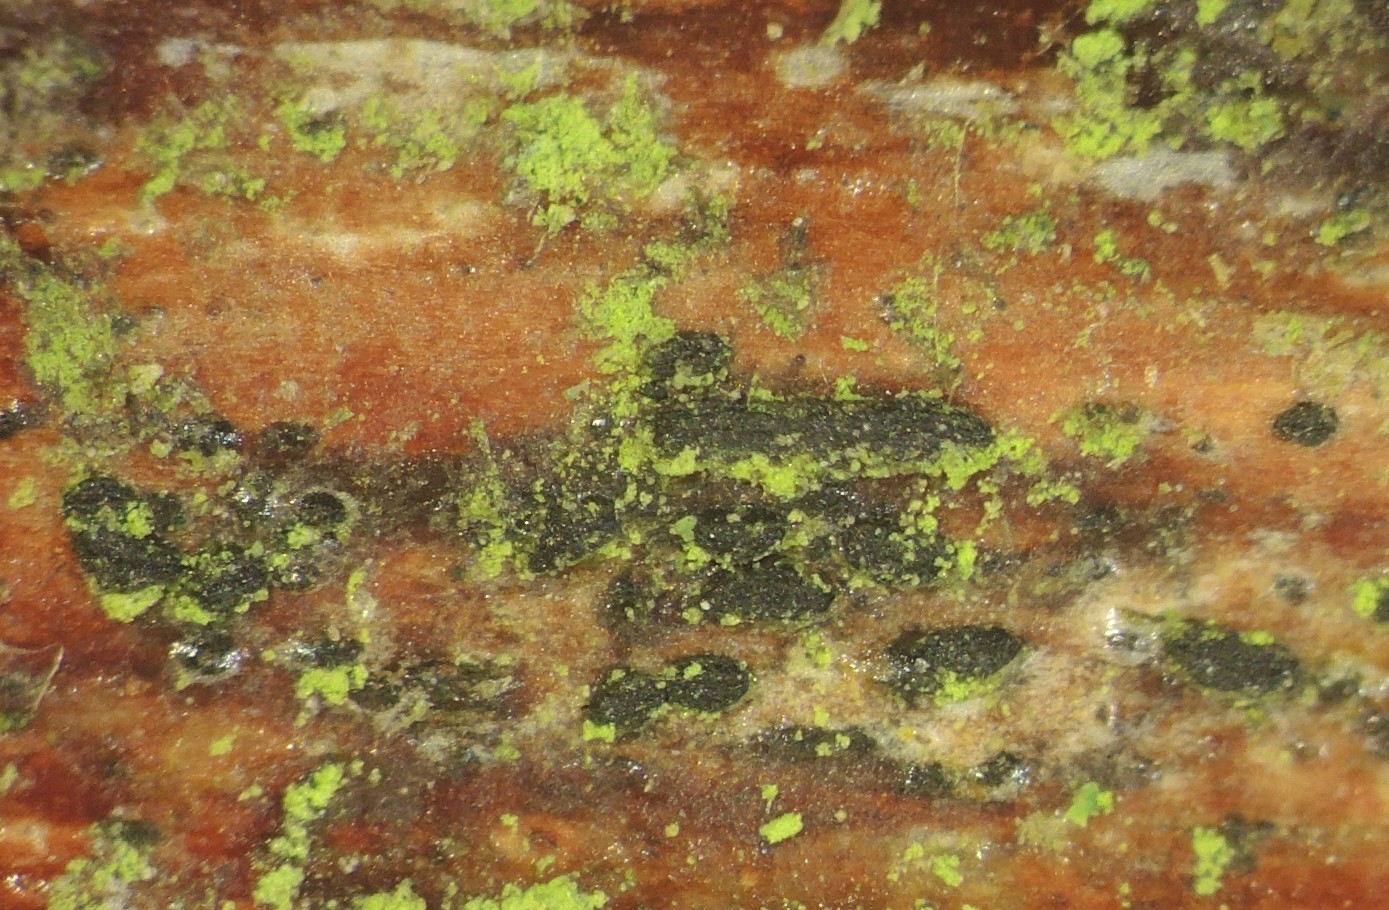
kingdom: Fungi
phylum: Ascomycota
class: Dothideomycetes
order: Hysteriales
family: Hysteriaceae
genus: Hysterobrevium
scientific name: Hysterobrevium smilacis
